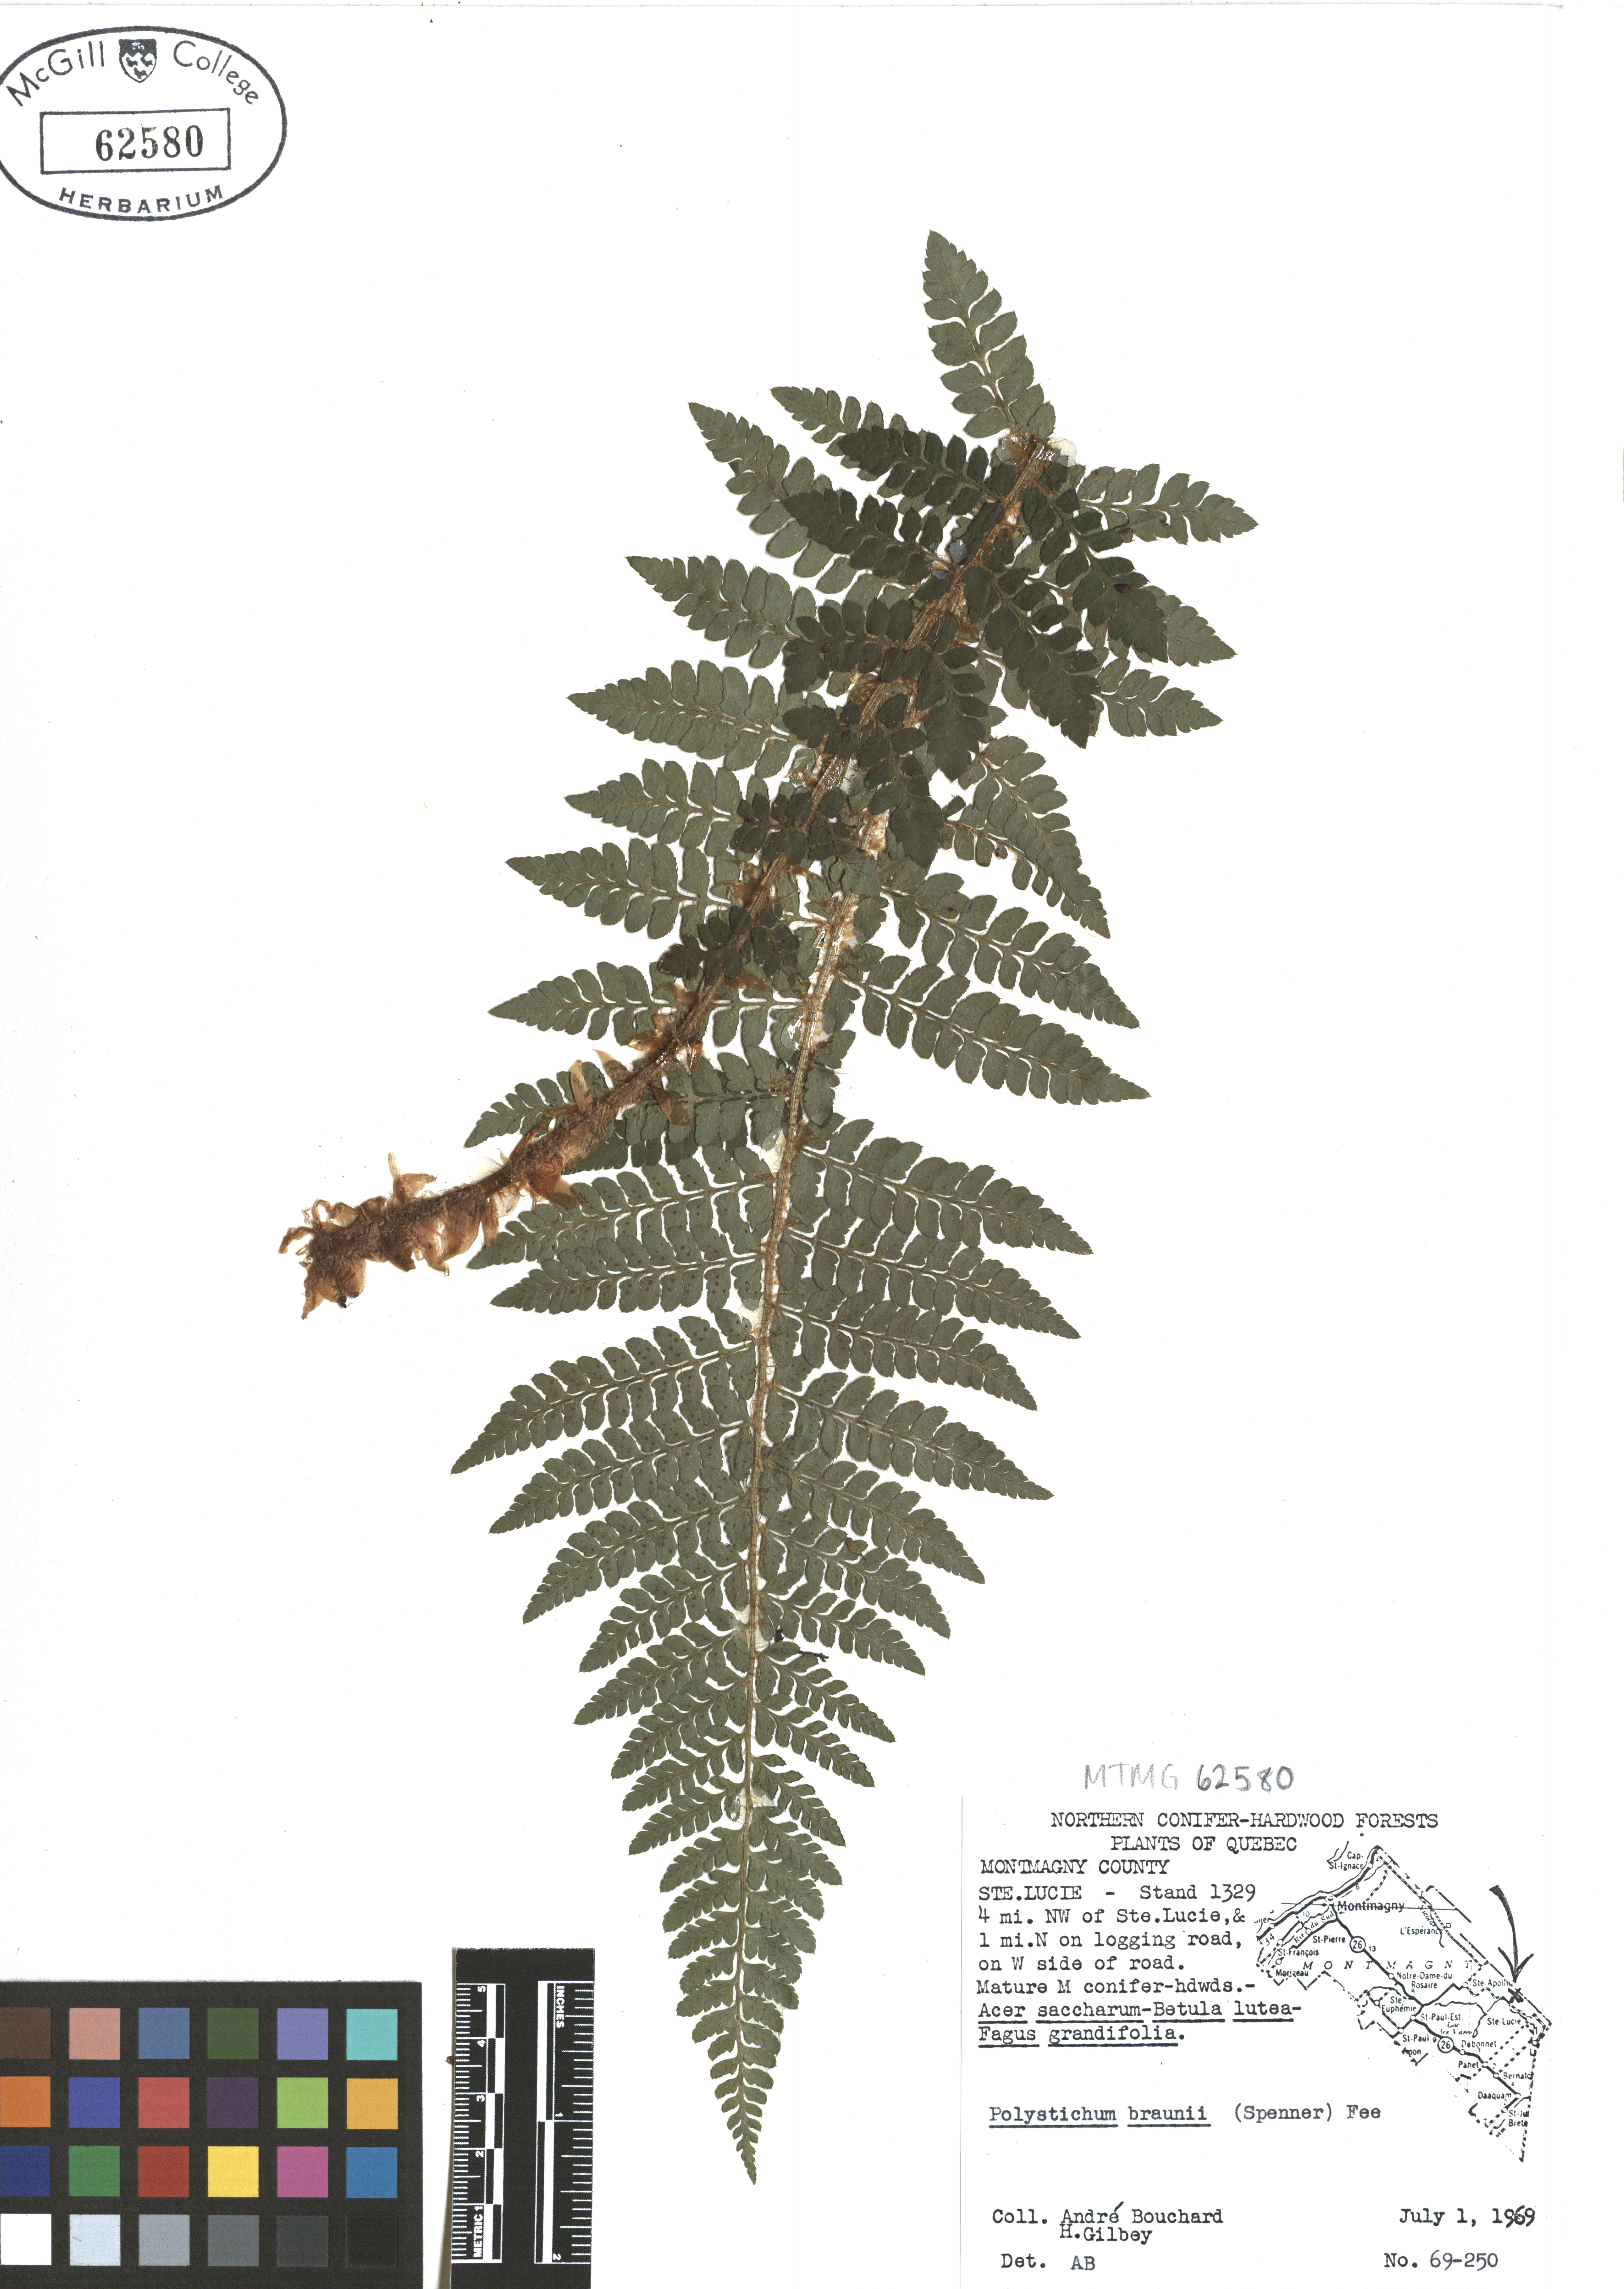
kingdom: Plantae
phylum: Tracheophyta
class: Polypodiopsida
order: Polypodiales
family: Dryopteridaceae
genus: Polystichum
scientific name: Polystichum braunii
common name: Braun's holly fern
